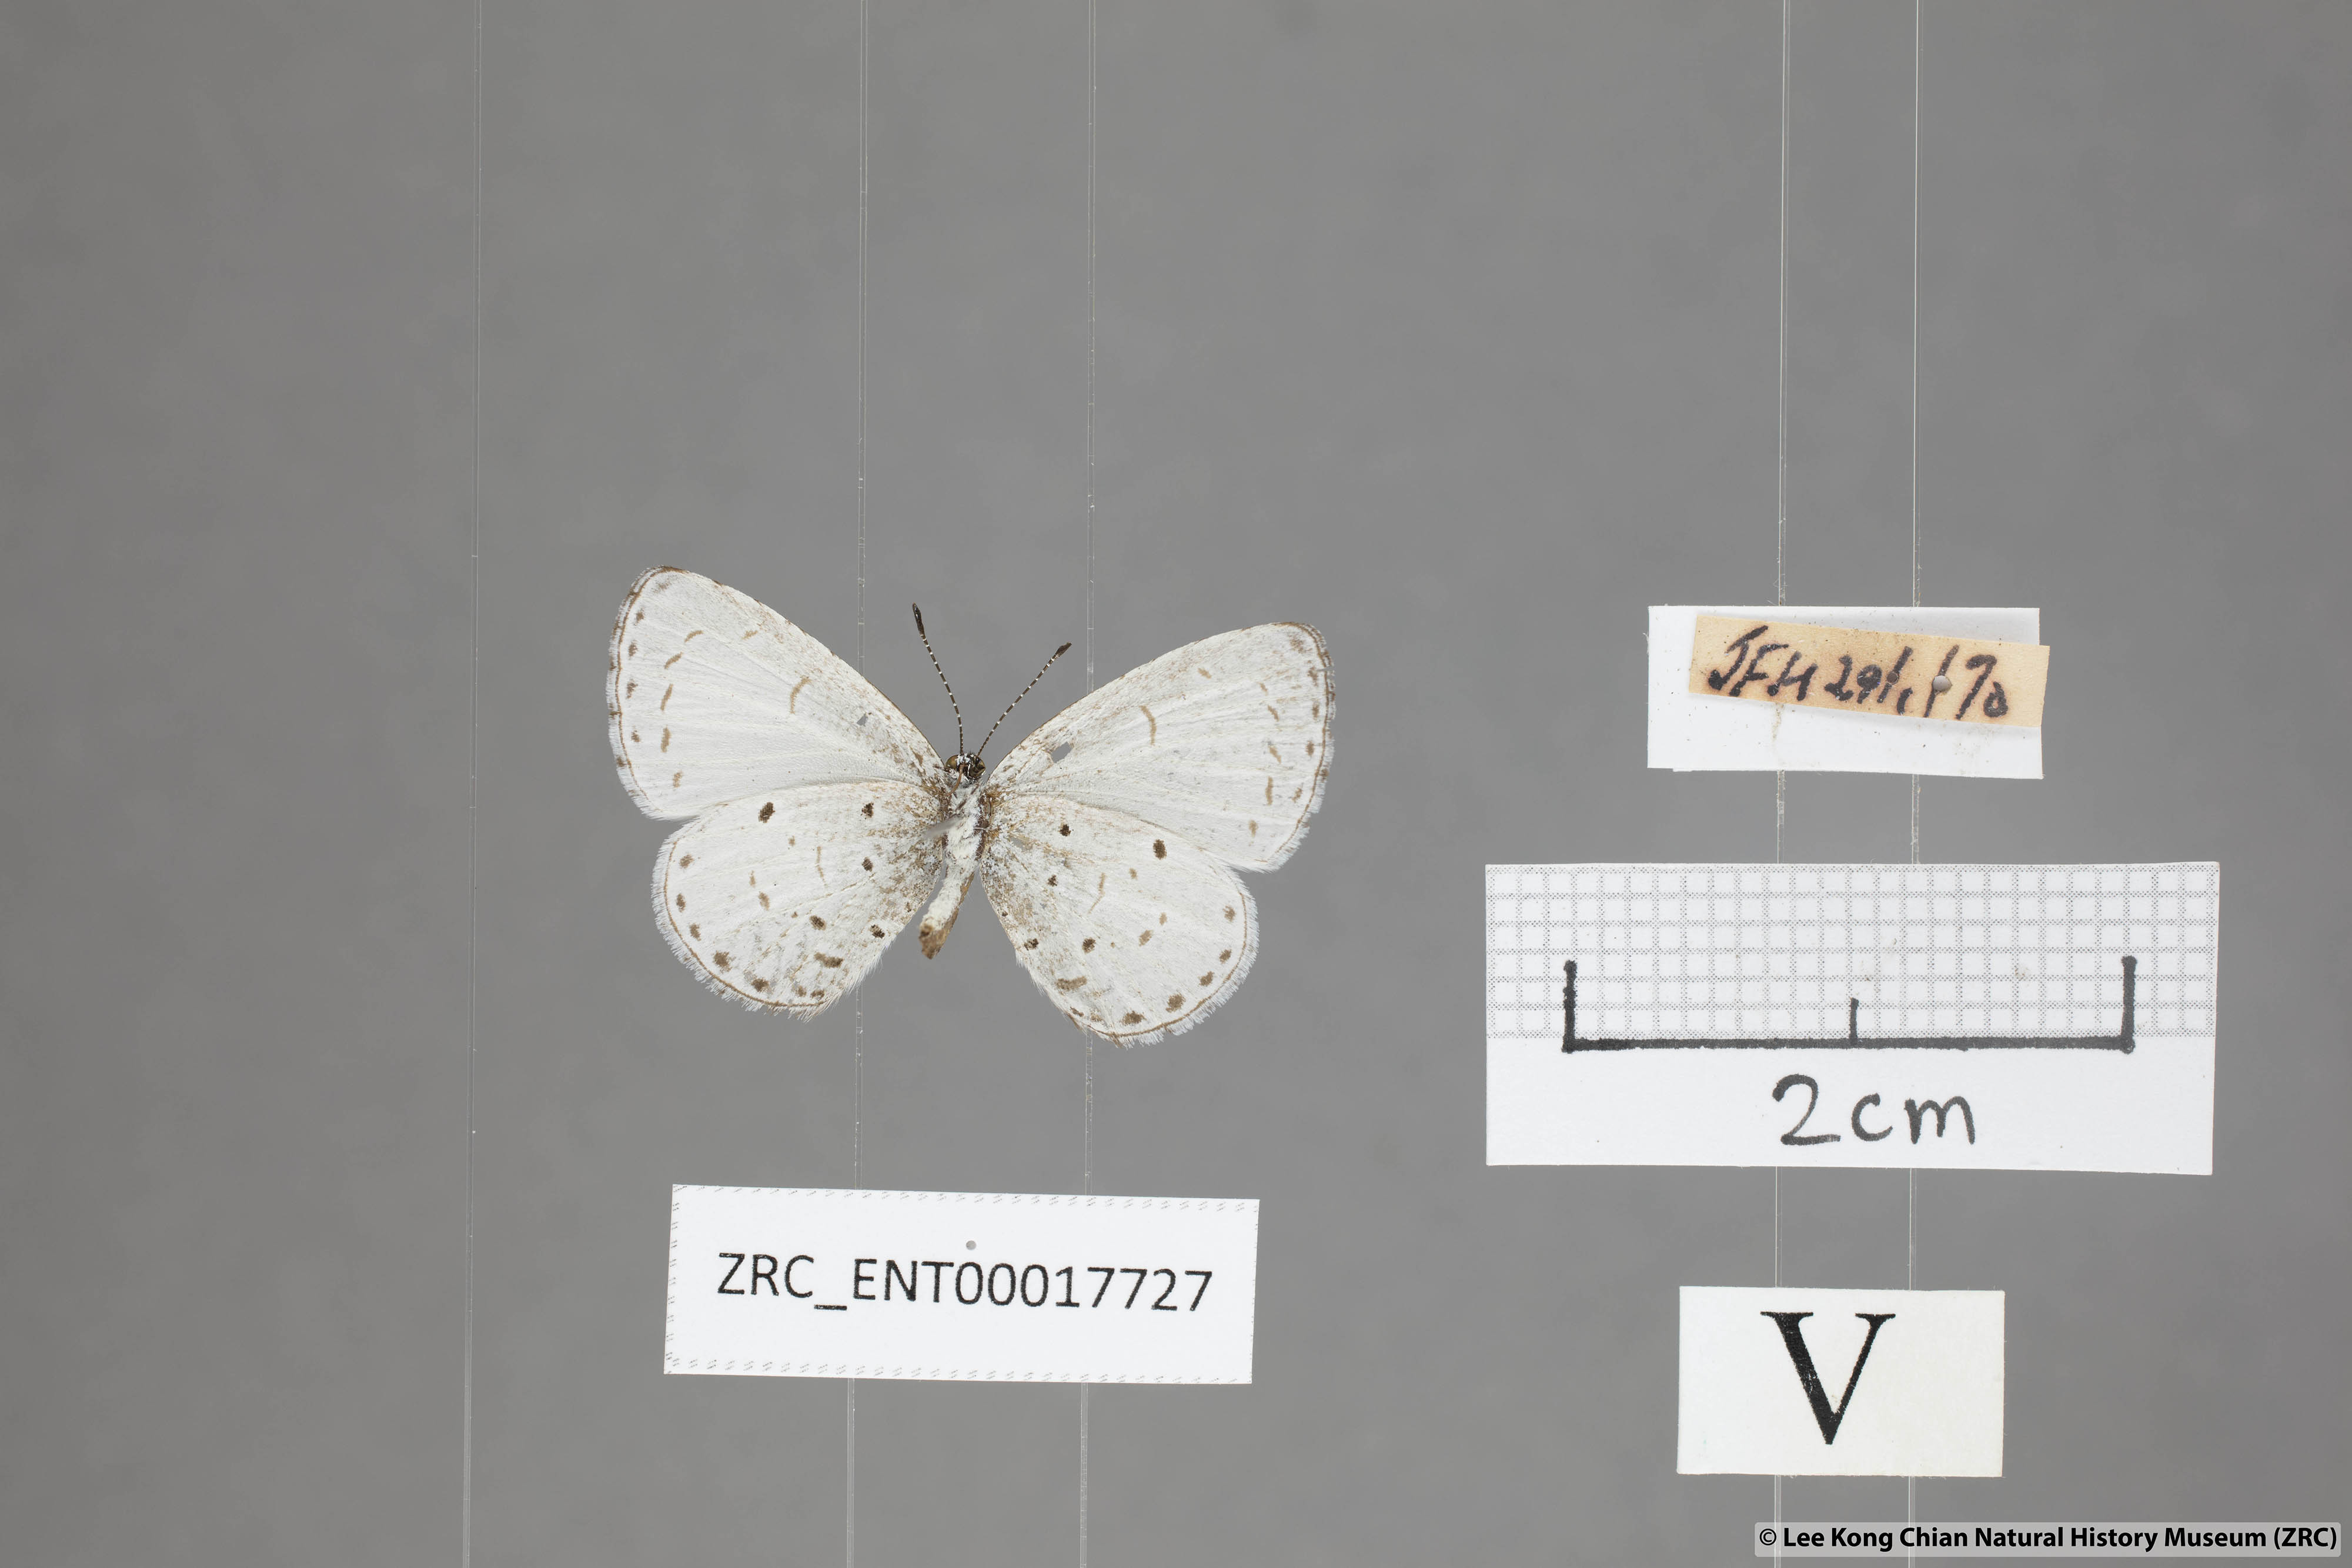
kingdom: Animalia
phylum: Arthropoda
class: Insecta
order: Lepidoptera
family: Lycaenidae
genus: Udara
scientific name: Udara
